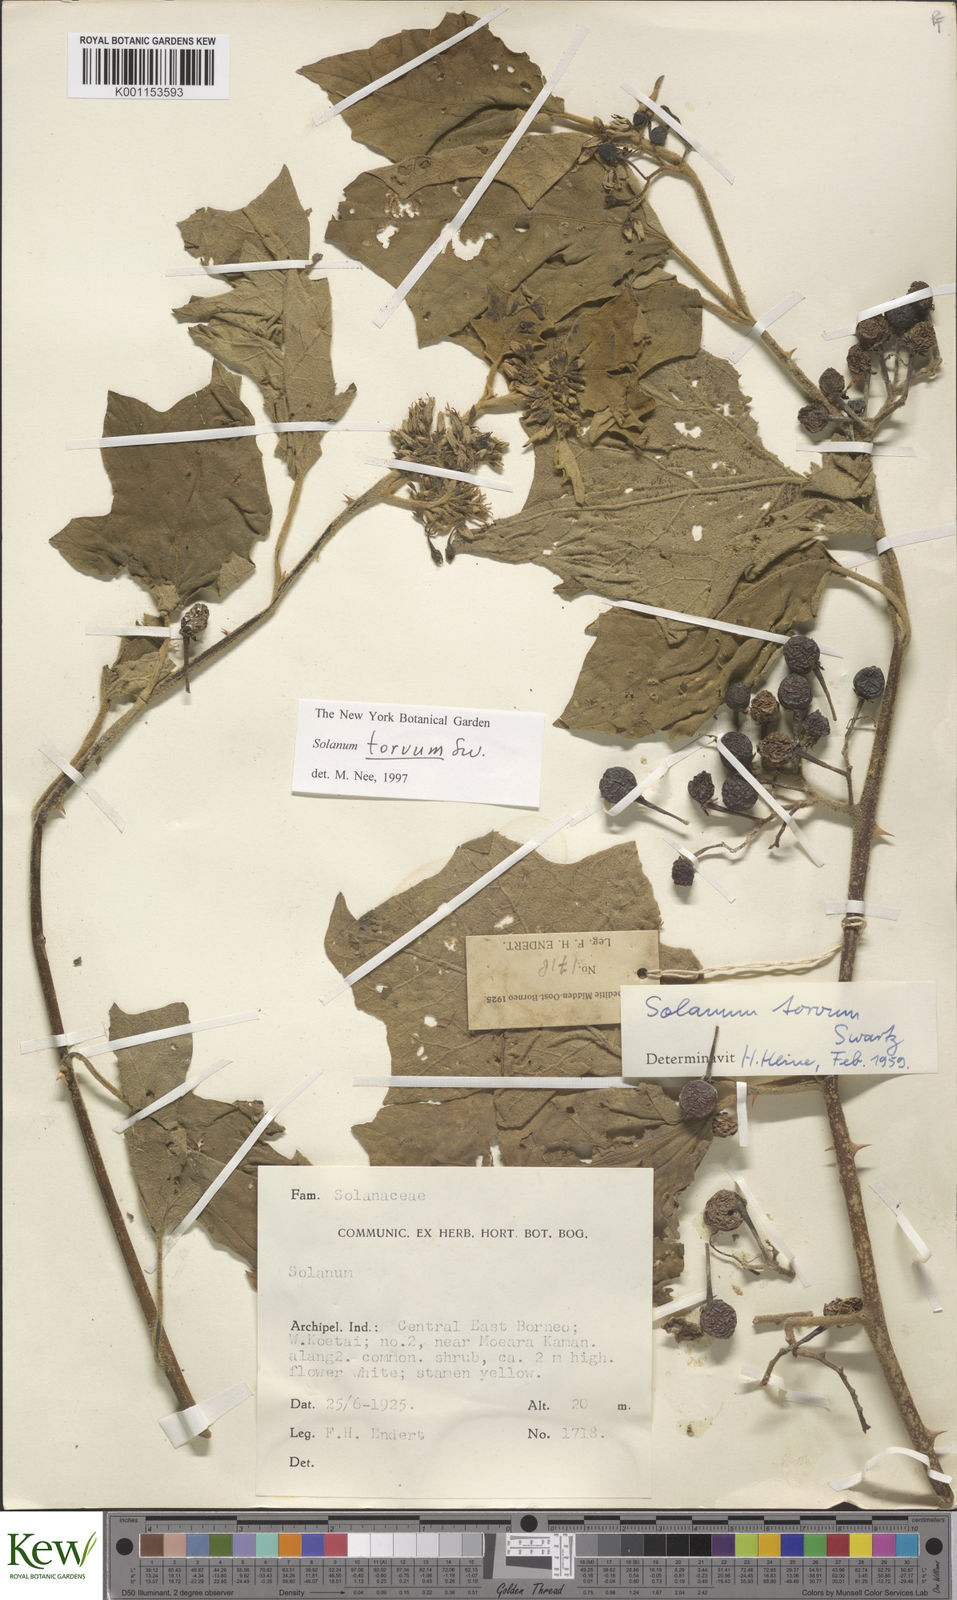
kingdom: Plantae
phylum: Tracheophyta
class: Magnoliopsida
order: Solanales
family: Solanaceae
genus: Solanum
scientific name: Solanum torvum
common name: Turkey berry
